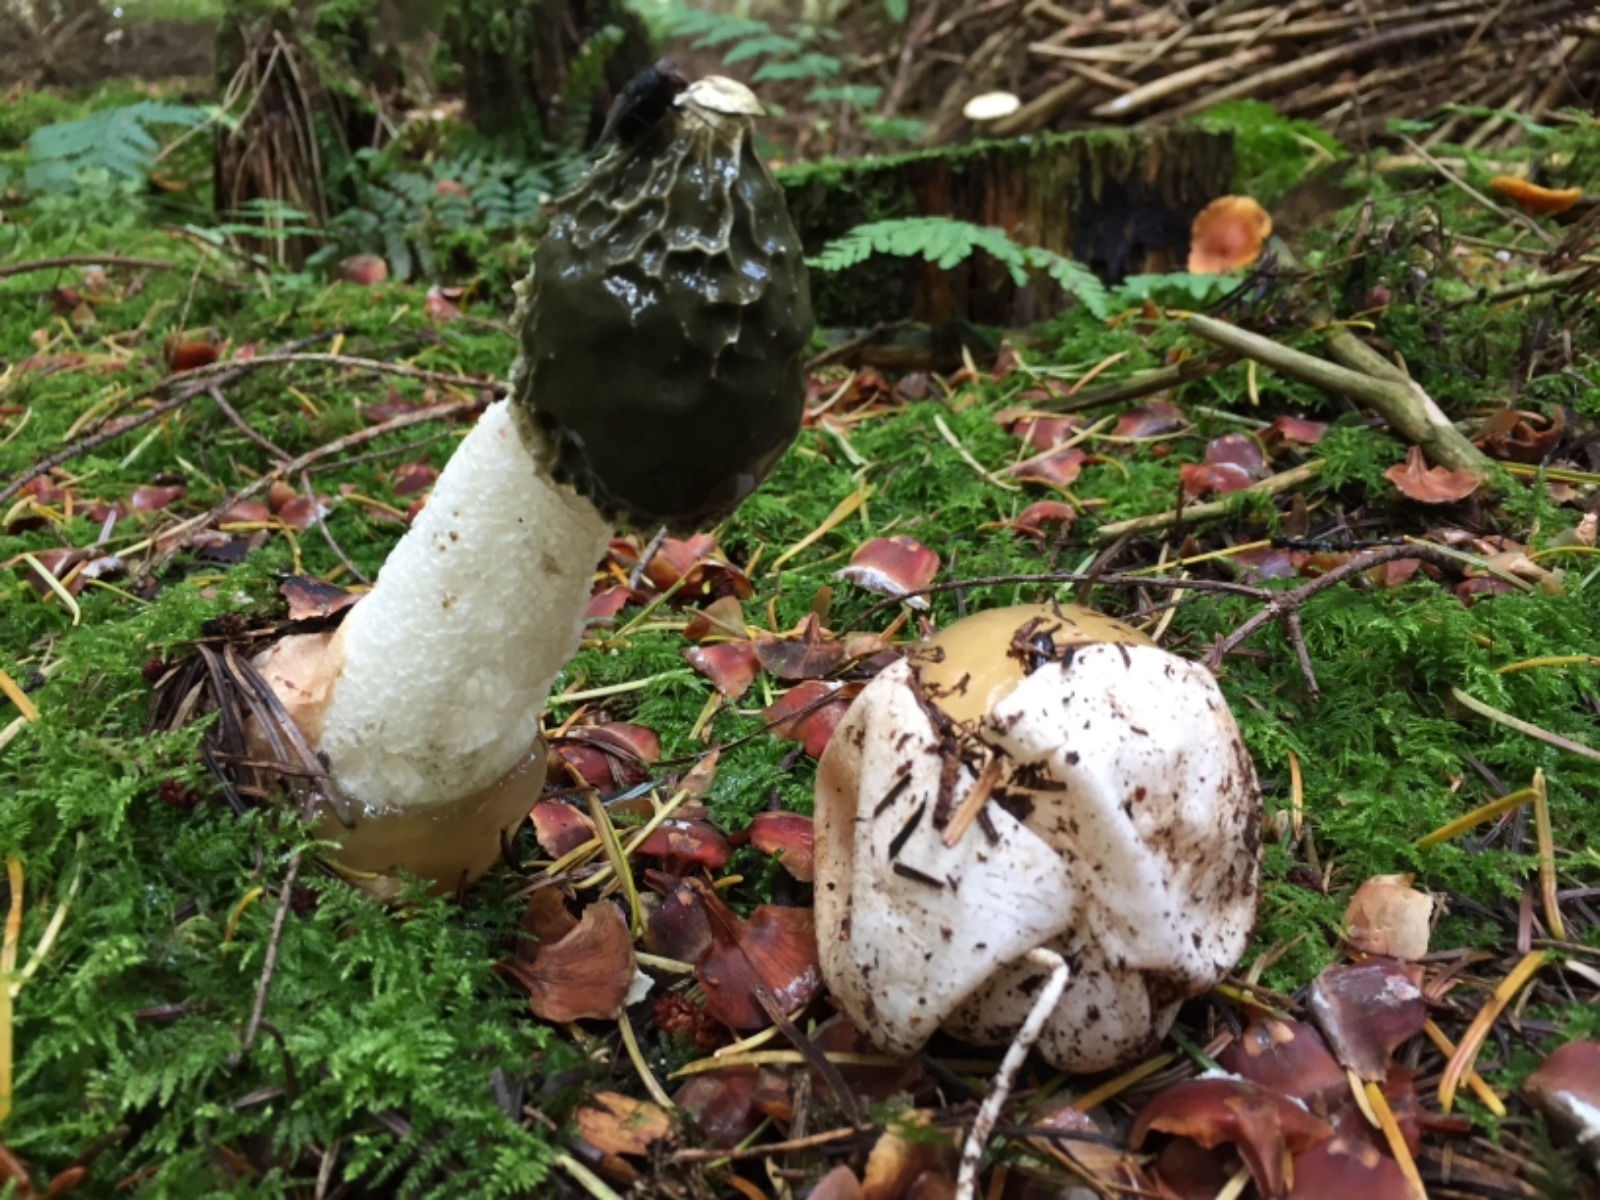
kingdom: Fungi
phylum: Basidiomycota
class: Agaricomycetes
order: Phallales
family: Phallaceae
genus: Phallus
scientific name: Phallus impudicus
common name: almindelig stinksvamp
